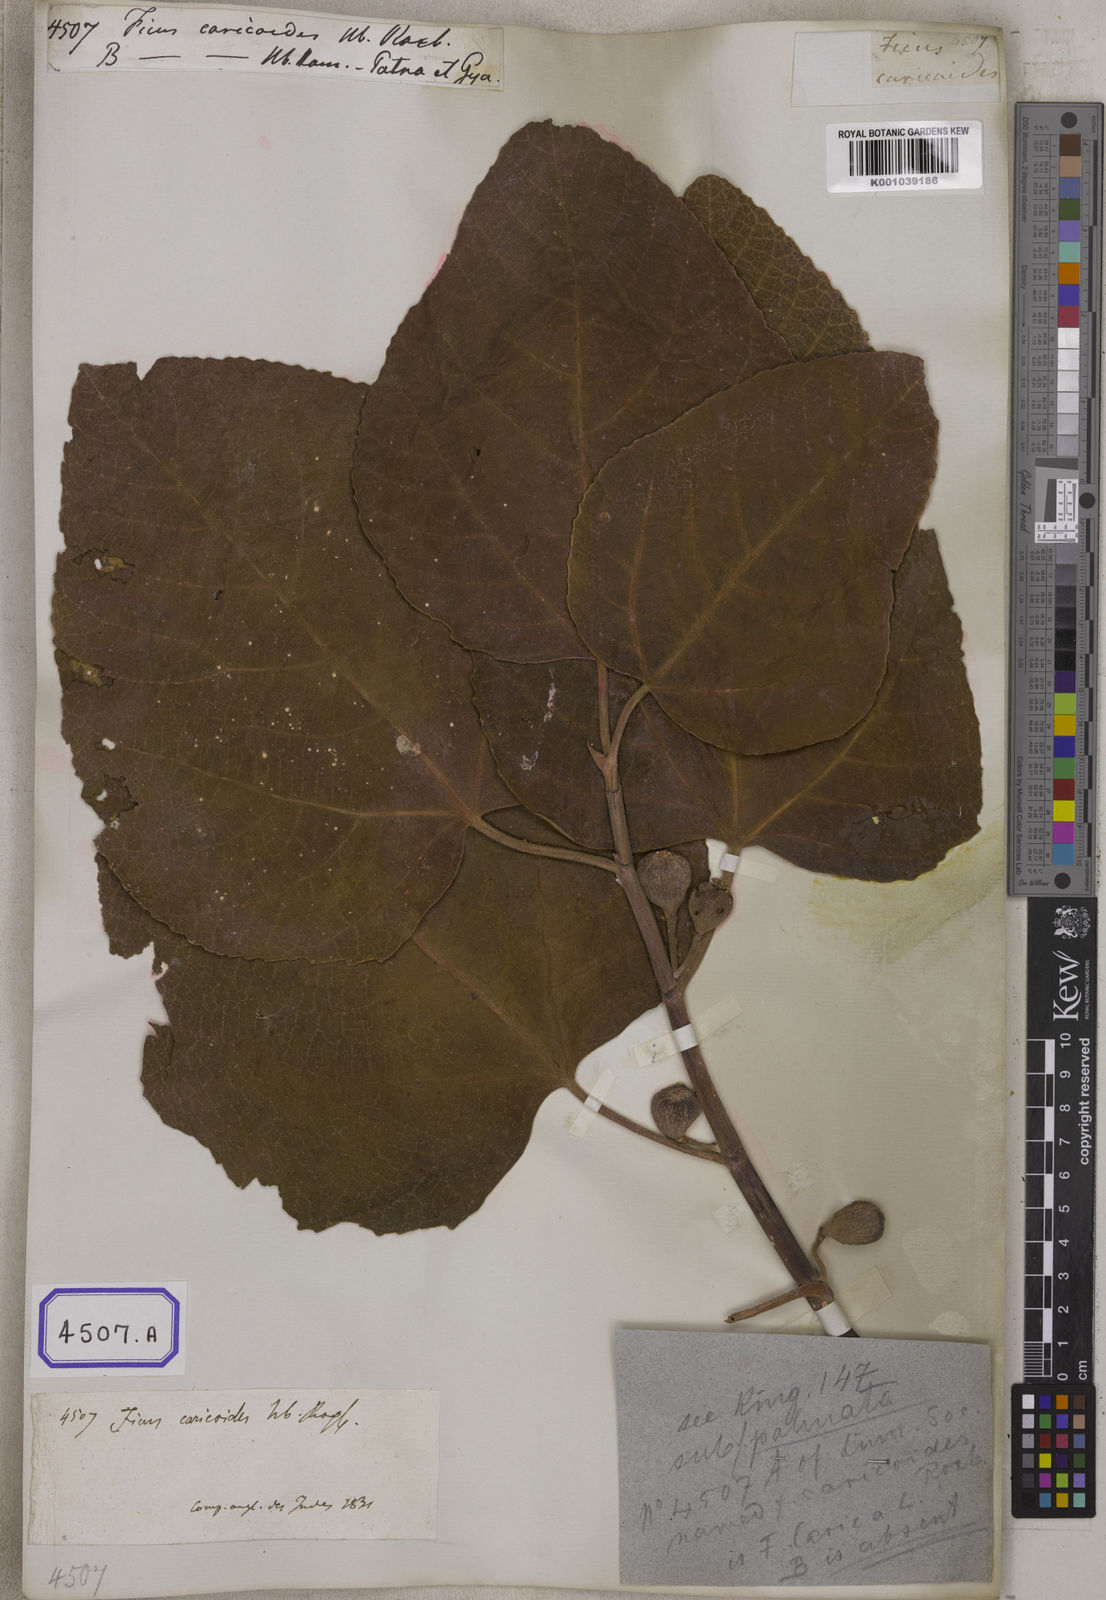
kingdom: Plantae
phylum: Tracheophyta
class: Magnoliopsida
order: Rosales
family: Moraceae
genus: Ficus
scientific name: Ficus palmata
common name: Punjab fig
